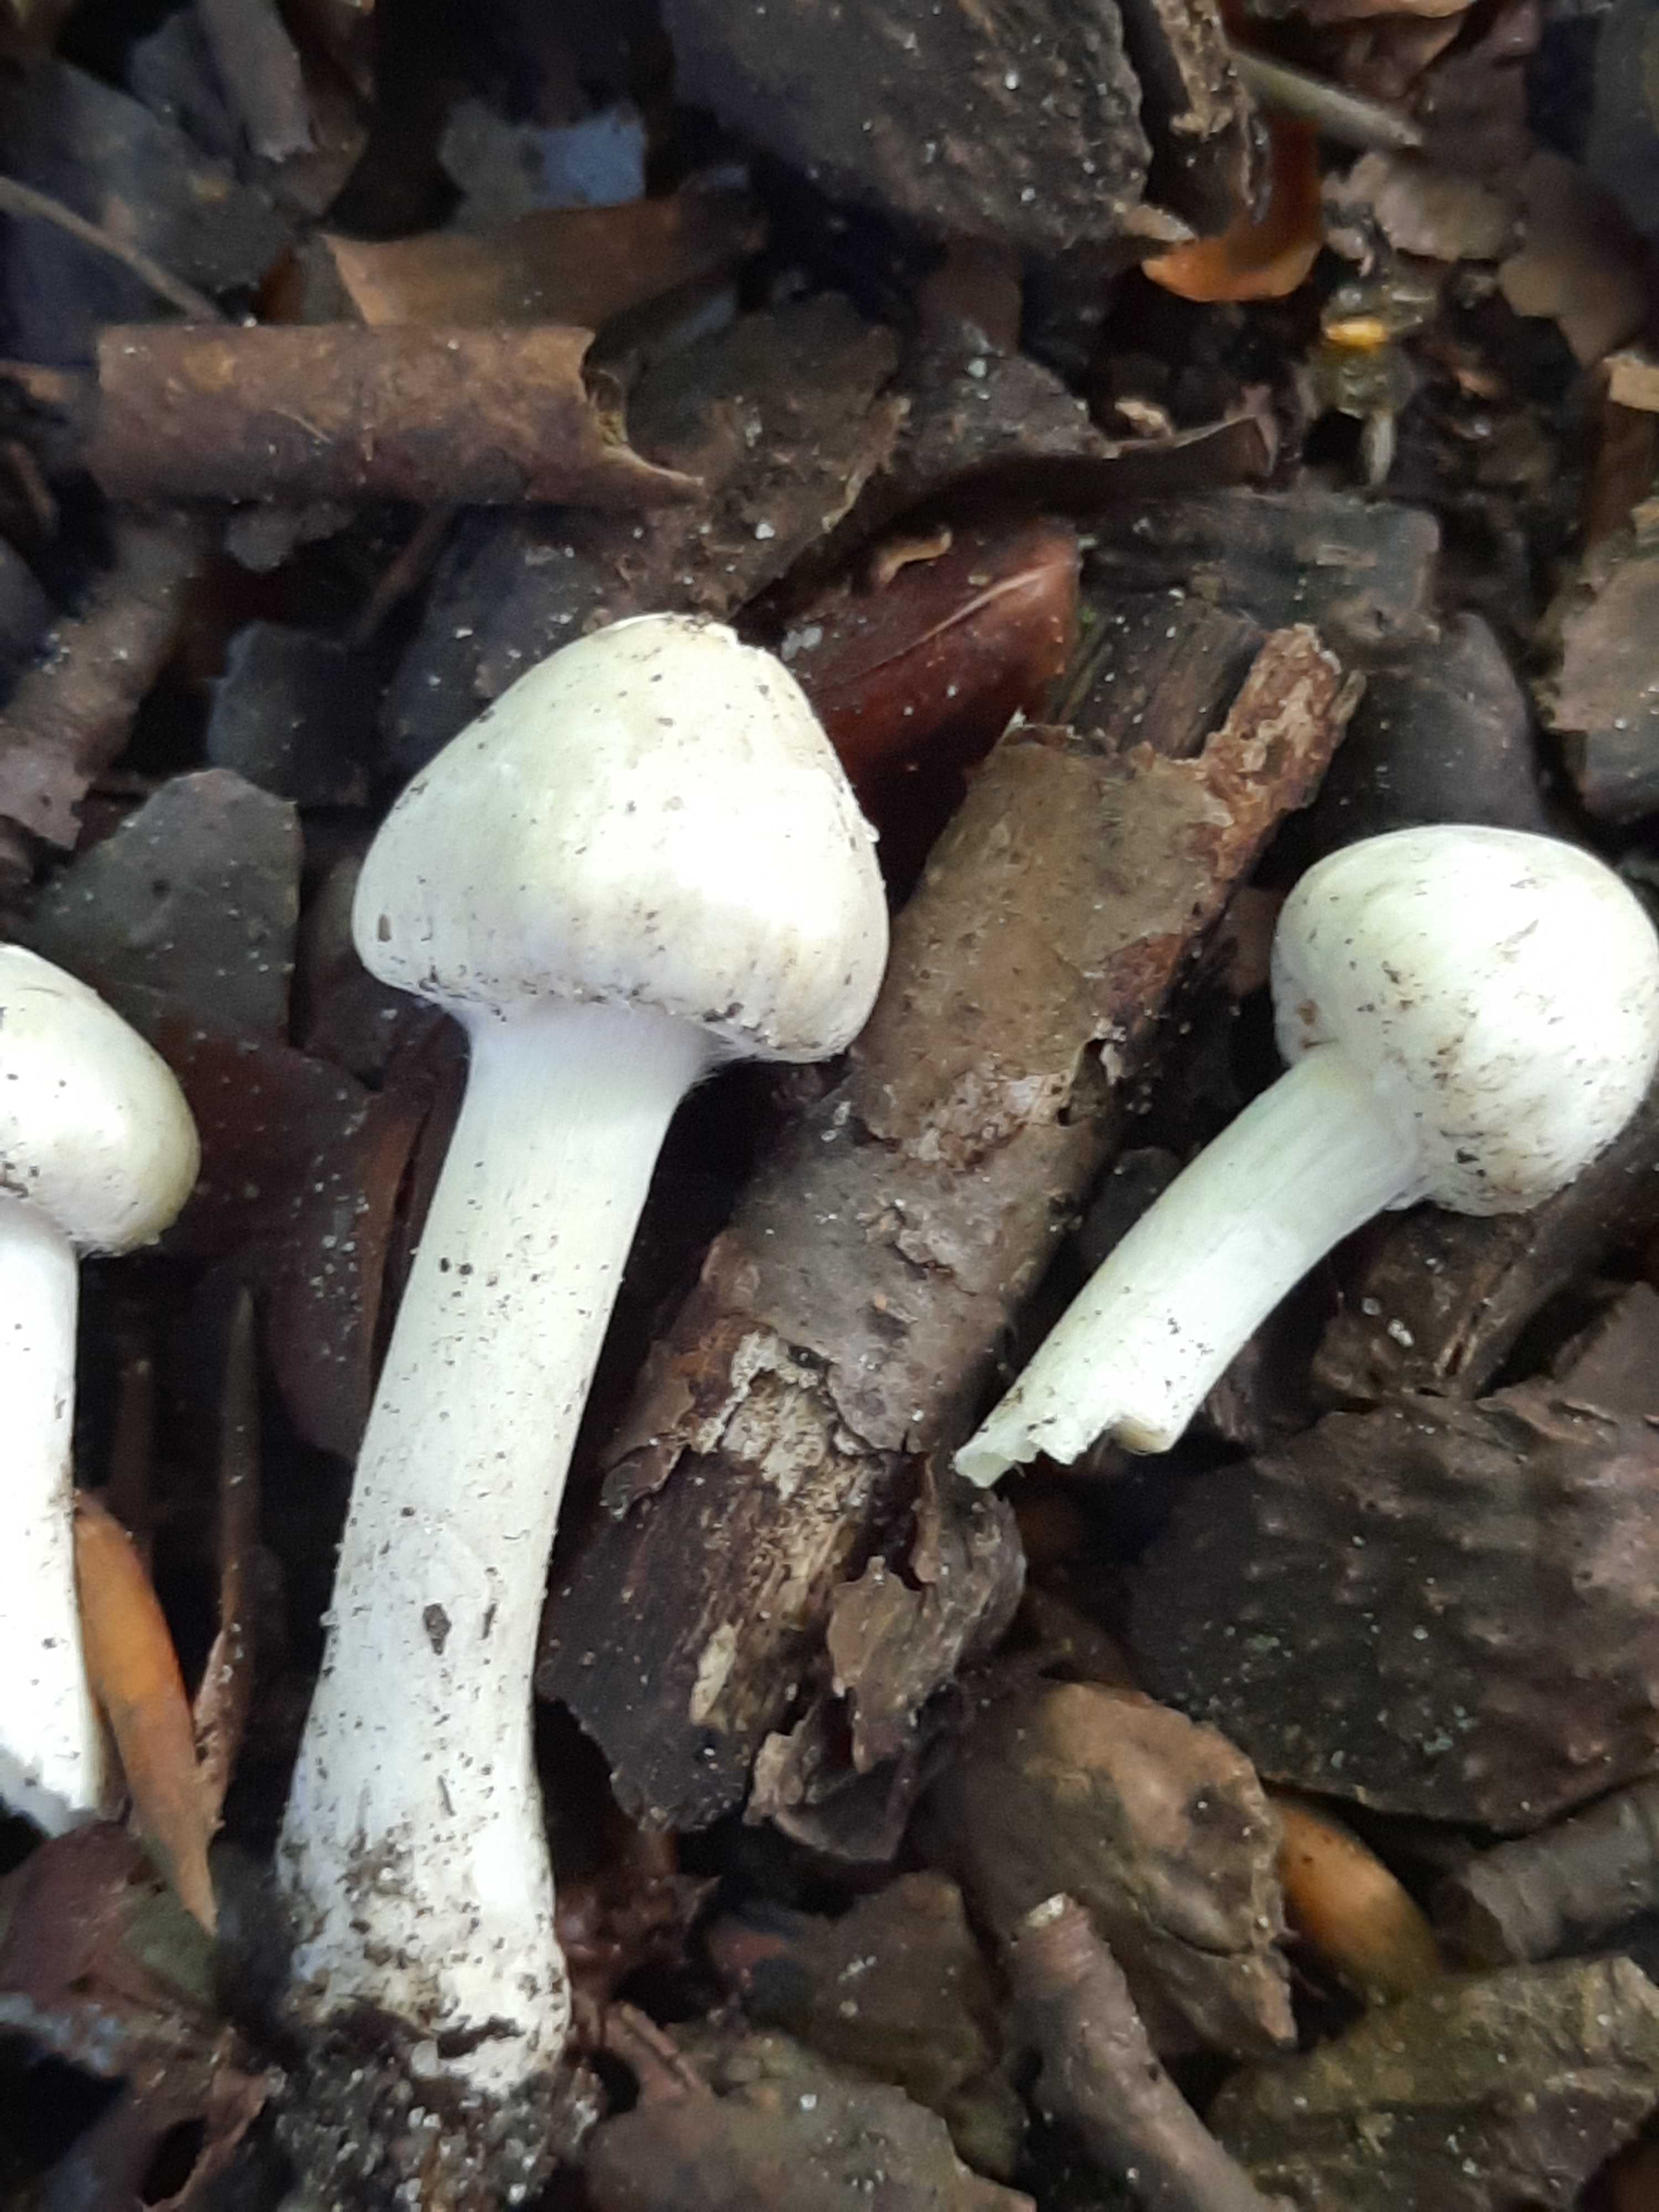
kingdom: Fungi
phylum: Basidiomycota
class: Agaricomycetes
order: Agaricales
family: Inocybaceae
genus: Inocybe
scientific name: Inocybe
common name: almindelig trævlhat
